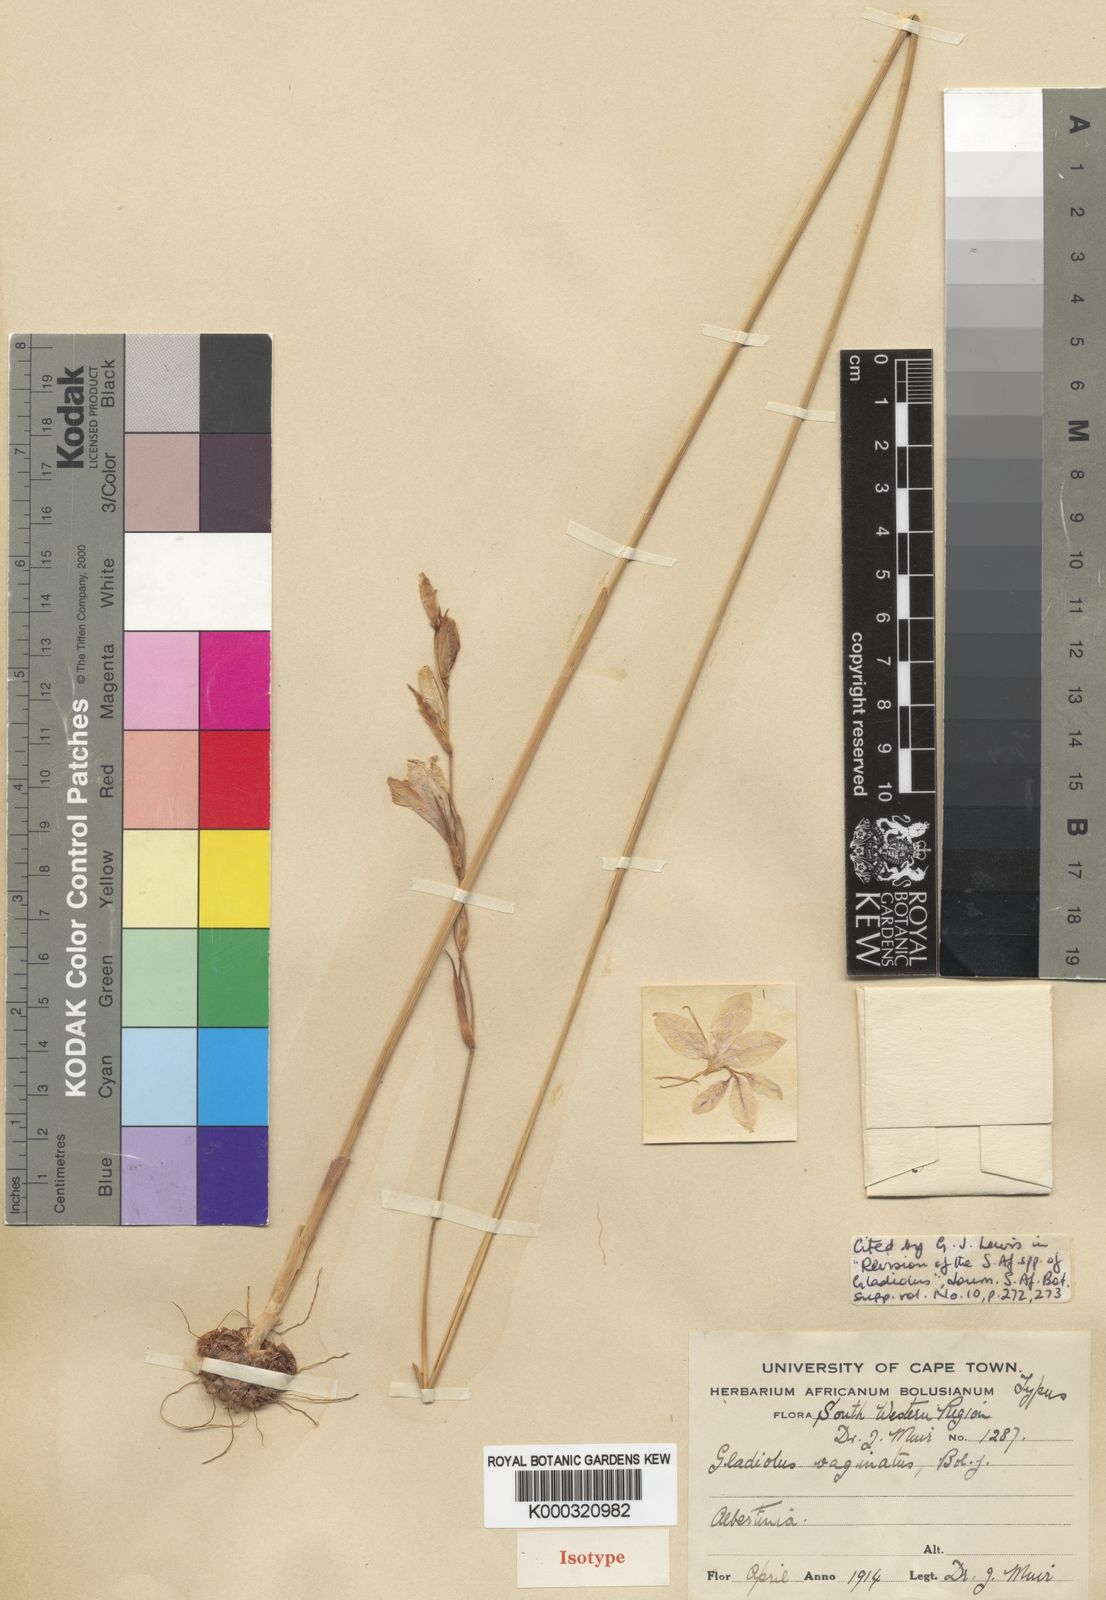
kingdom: Plantae
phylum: Tracheophyta
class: Liliopsida
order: Asparagales
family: Iridaceae
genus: Gladiolus
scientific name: Gladiolus vaginatus
